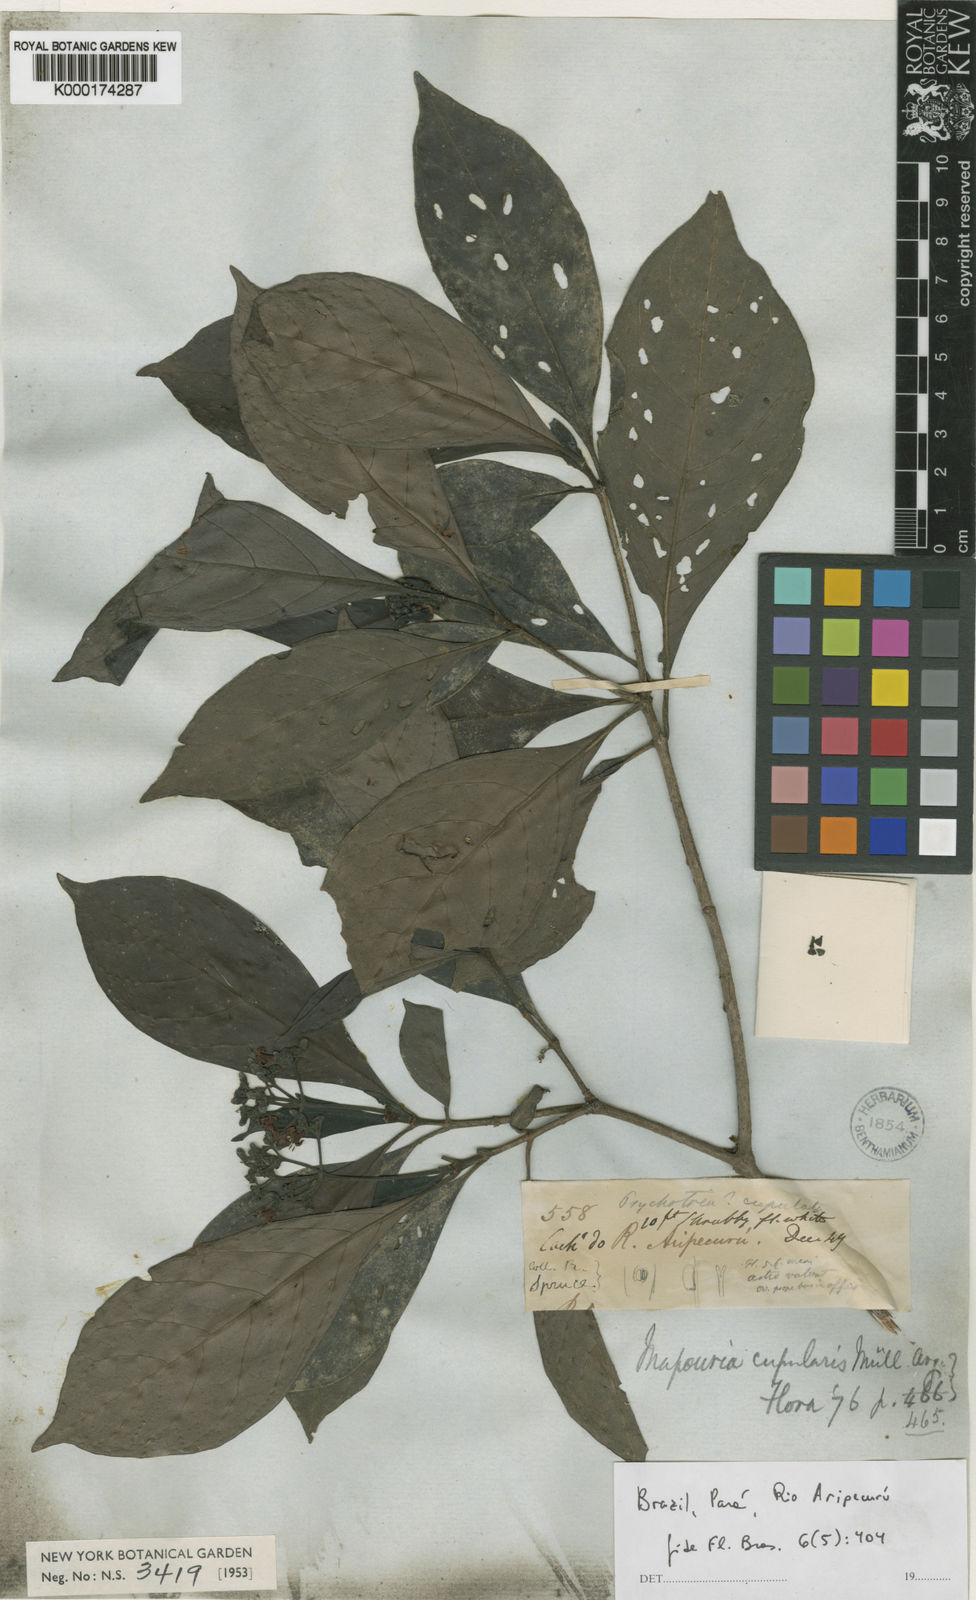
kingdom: Plantae
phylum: Tracheophyta
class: Magnoliopsida
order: Gentianales
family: Rubiaceae
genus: Psychotria
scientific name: Psychotria
